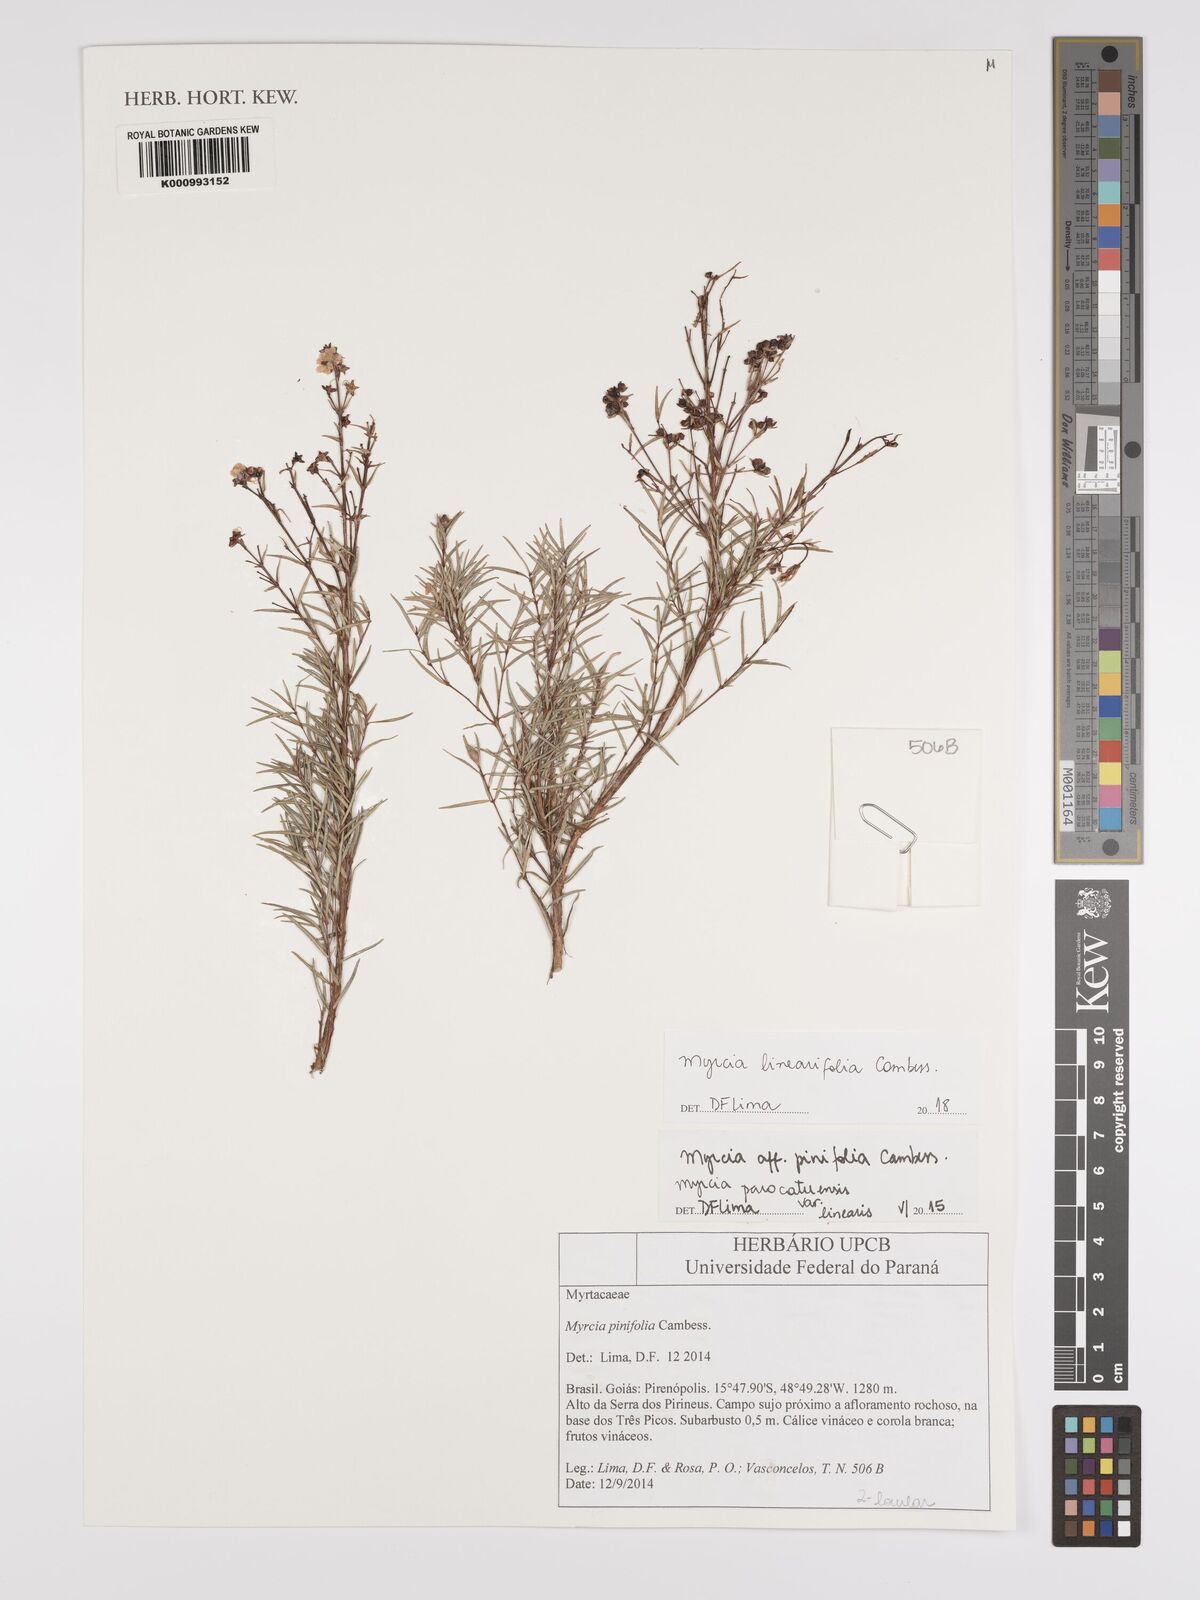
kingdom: Plantae
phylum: Tracheophyta
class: Magnoliopsida
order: Myrtales
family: Myrtaceae
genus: Myrcia
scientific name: Myrcia linearifolia
